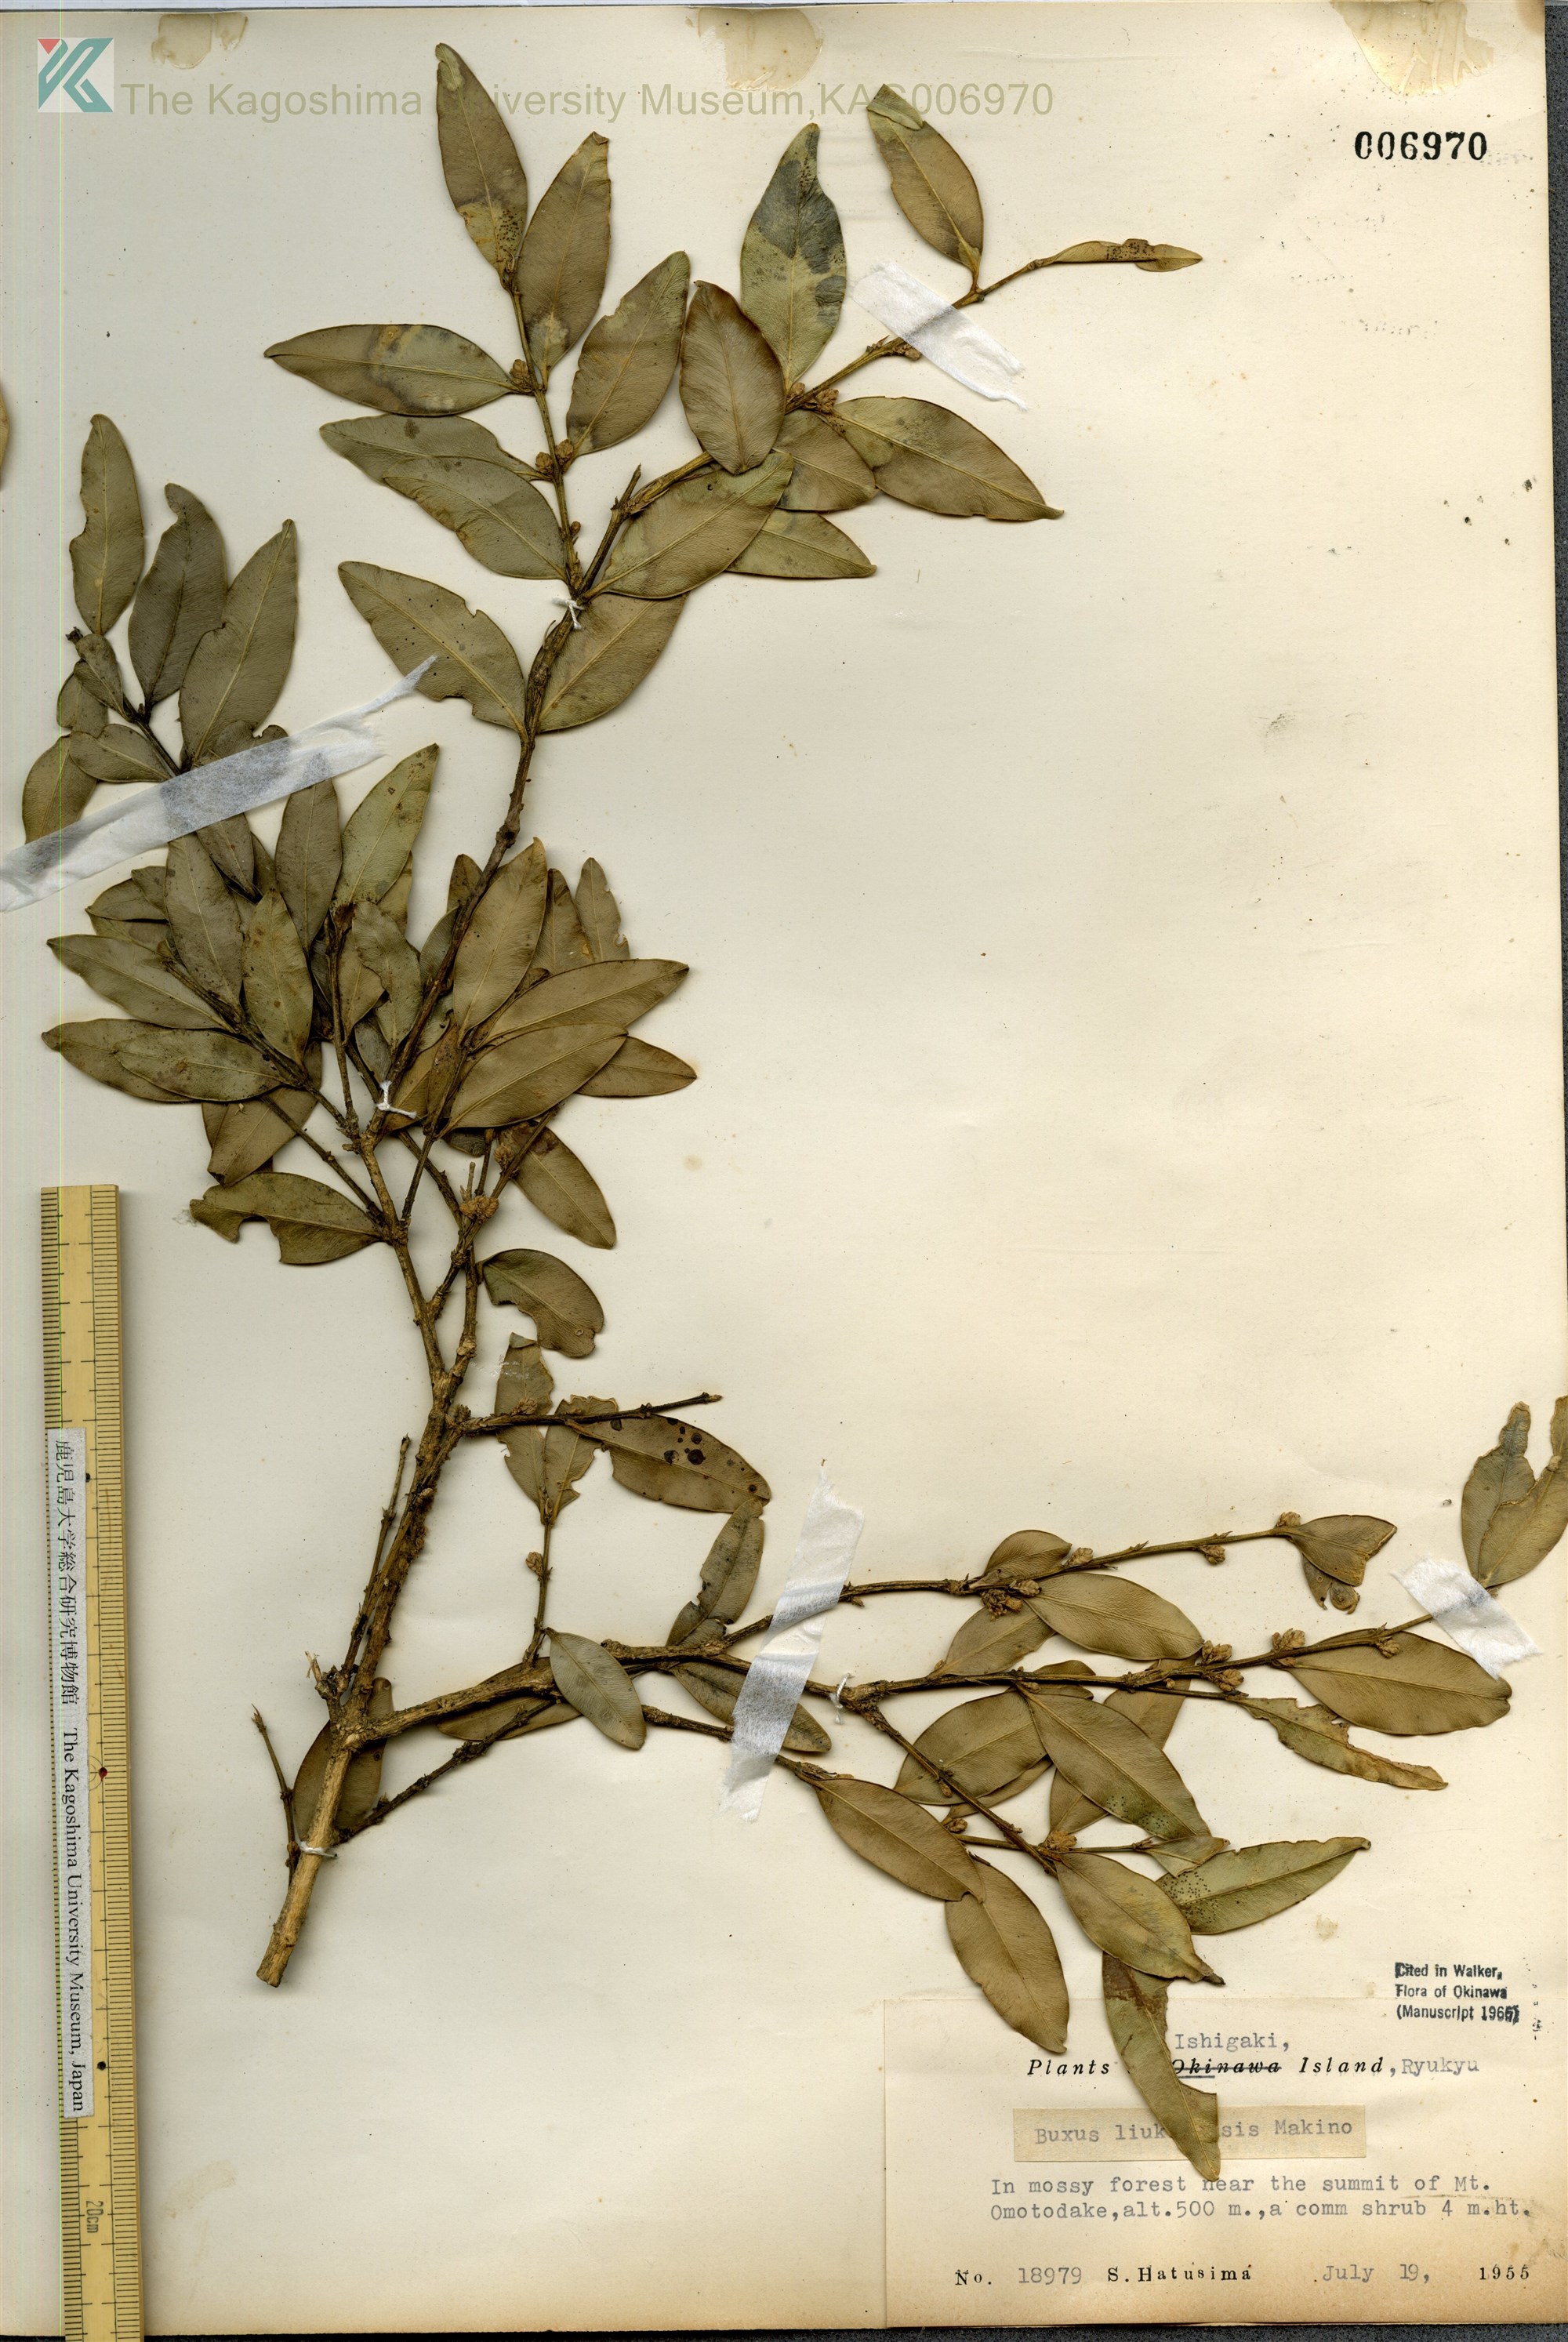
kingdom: Plantae
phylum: Tracheophyta
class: Magnoliopsida
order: Buxales
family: Buxaceae
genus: Buxus
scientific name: Buxus liukiuensis
